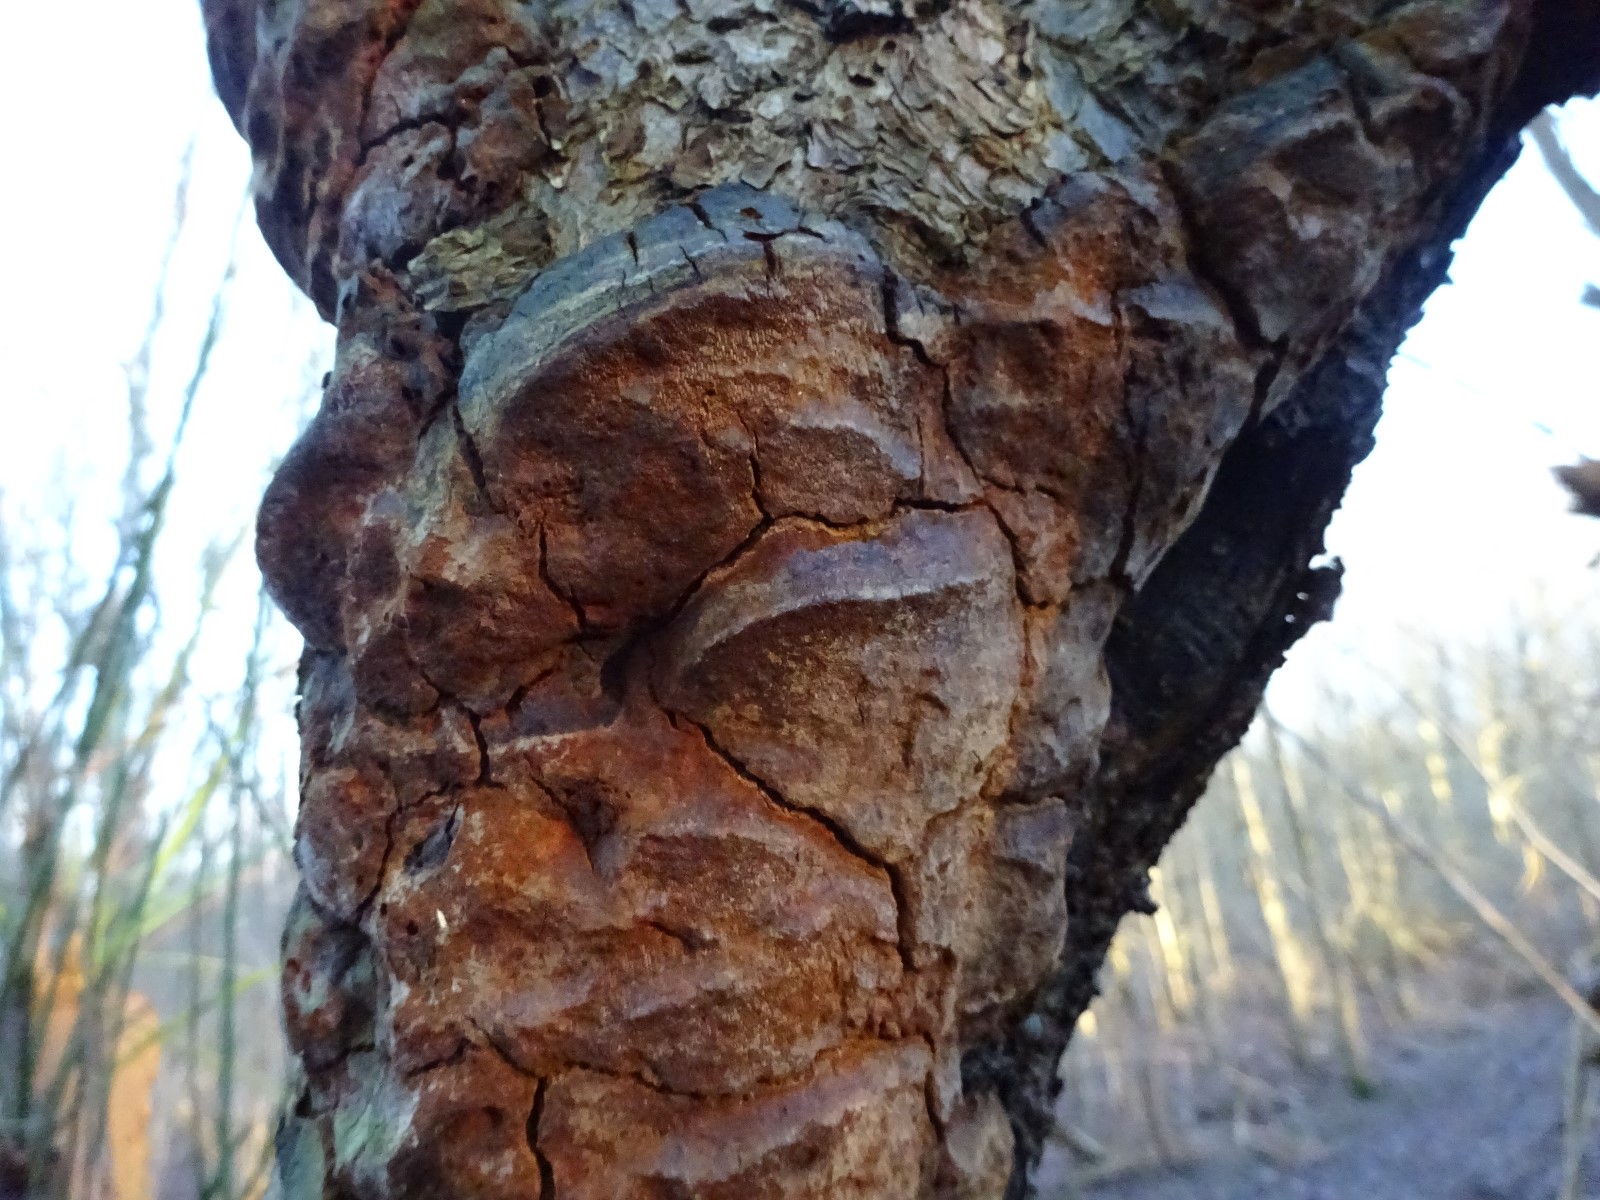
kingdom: Fungi
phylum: Basidiomycota
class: Agaricomycetes
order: Hymenochaetales
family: Hymenochaetaceae
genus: Phellinus
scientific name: Phellinus pomaceus
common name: blomme-ildporesvamp
